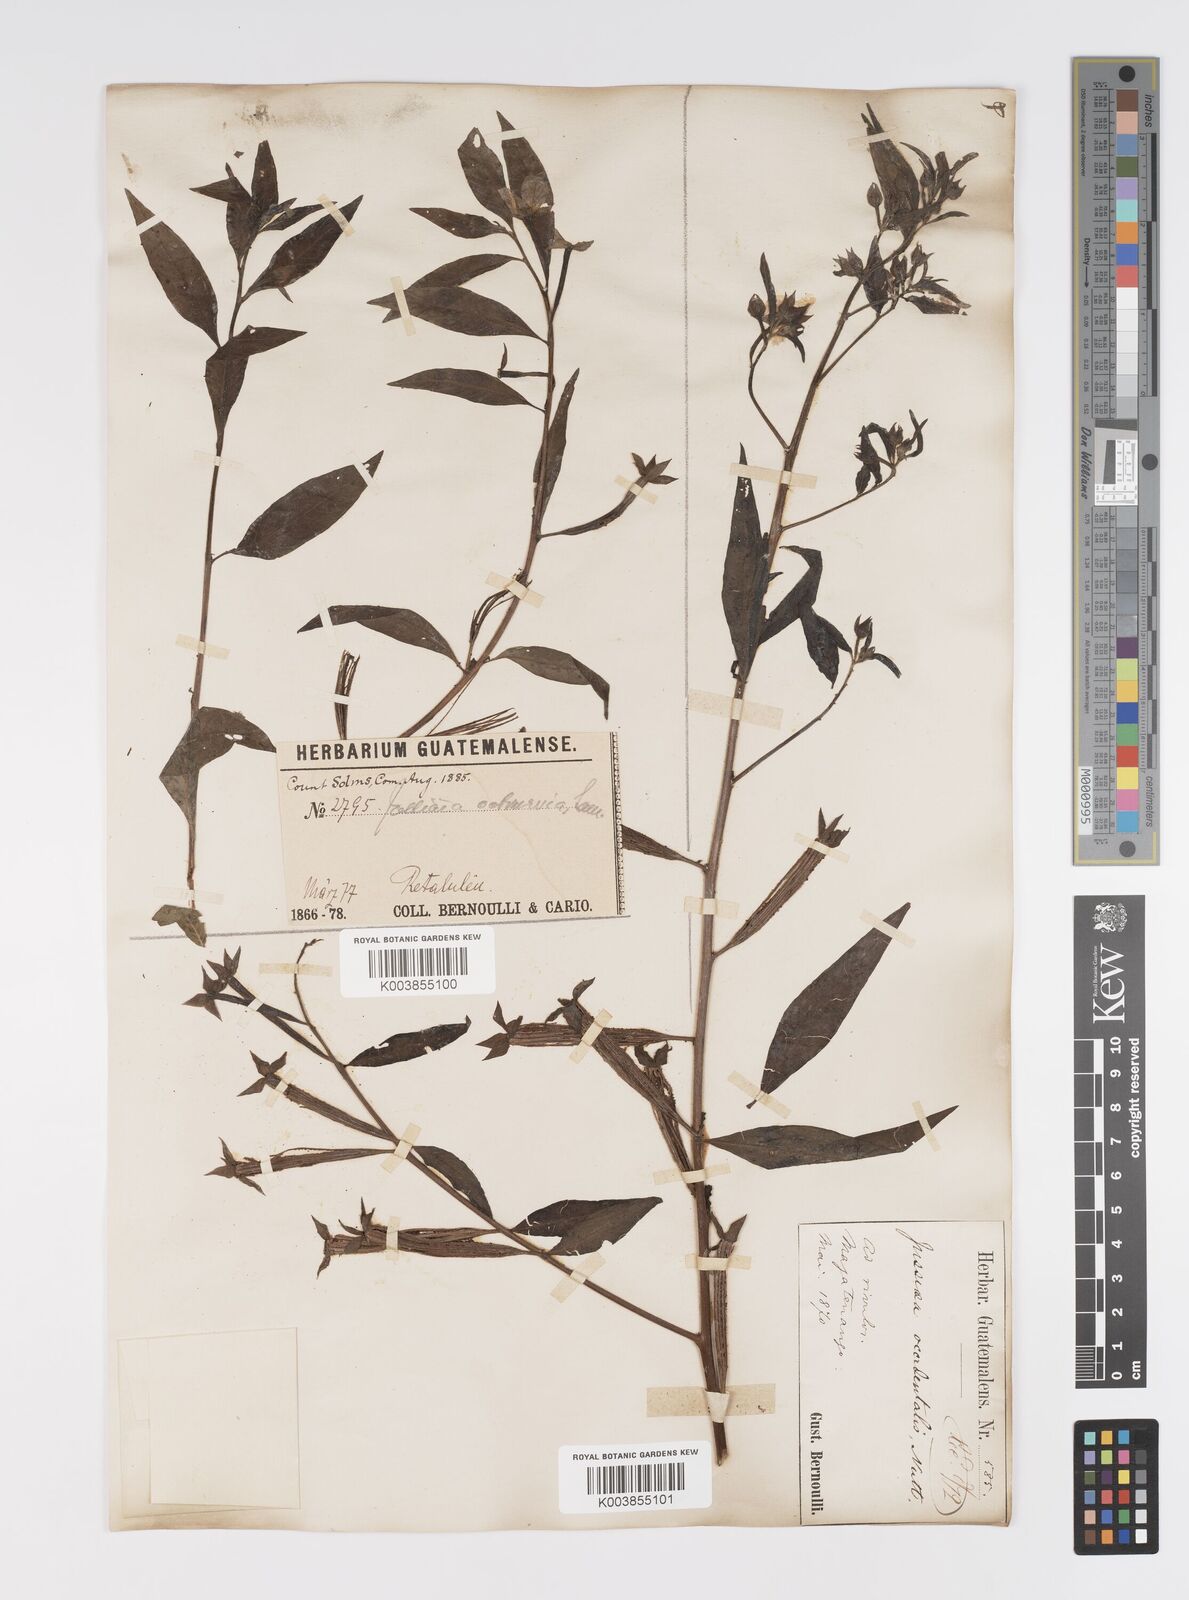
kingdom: Plantae
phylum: Tracheophyta
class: Magnoliopsida
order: Myrtales
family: Onagraceae
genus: Ludwigia
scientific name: Ludwigia octovalvis
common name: Water-primrose
